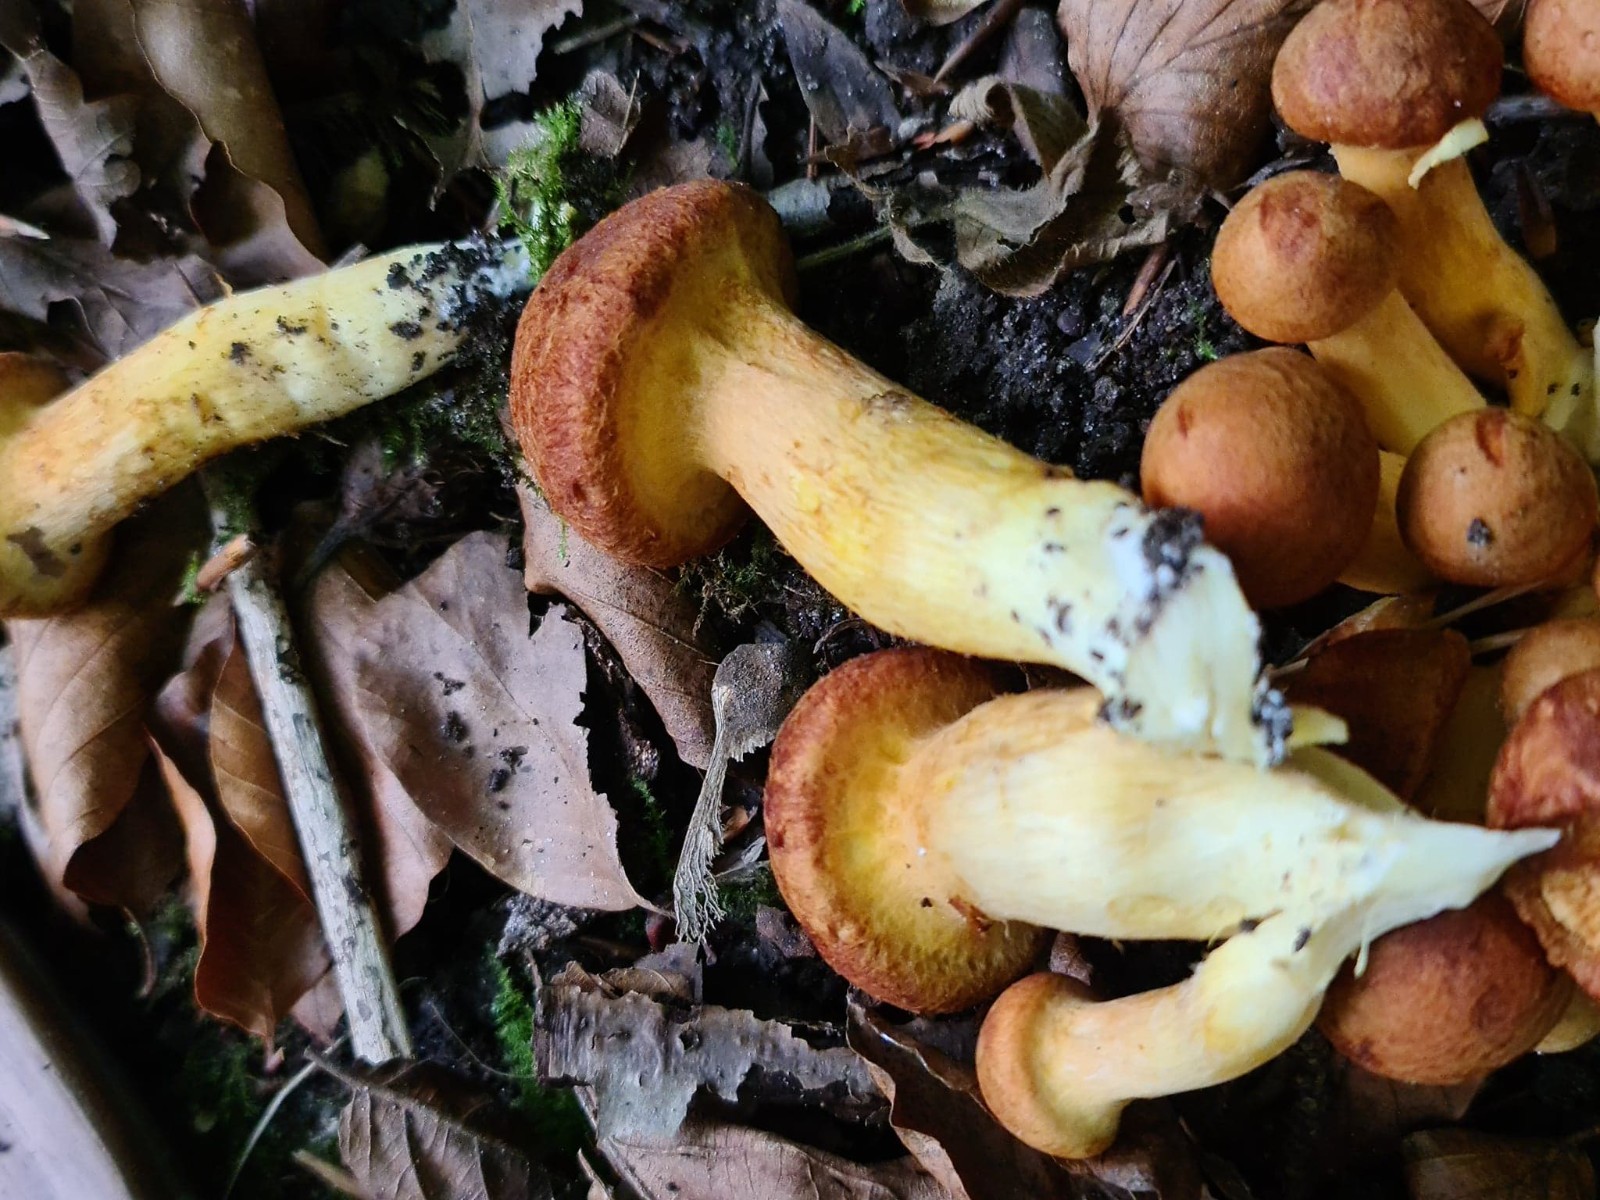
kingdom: Fungi
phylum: Basidiomycota
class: Agaricomycetes
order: Agaricales
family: Hymenogastraceae
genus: Gymnopilus
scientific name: Gymnopilus spectabilis
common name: fibret flammehat
